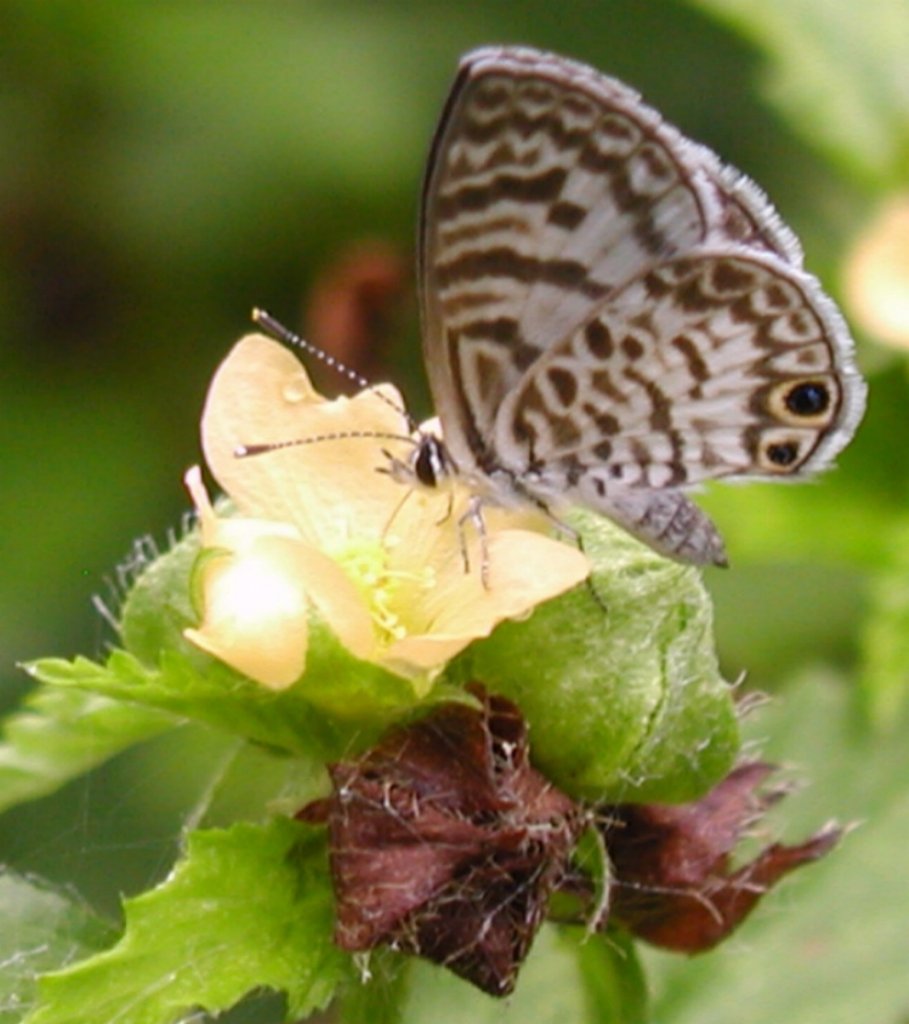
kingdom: Animalia
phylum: Arthropoda
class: Insecta
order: Lepidoptera
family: Lycaenidae
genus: Leptotes
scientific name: Leptotes cassius
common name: Cassius Blue
